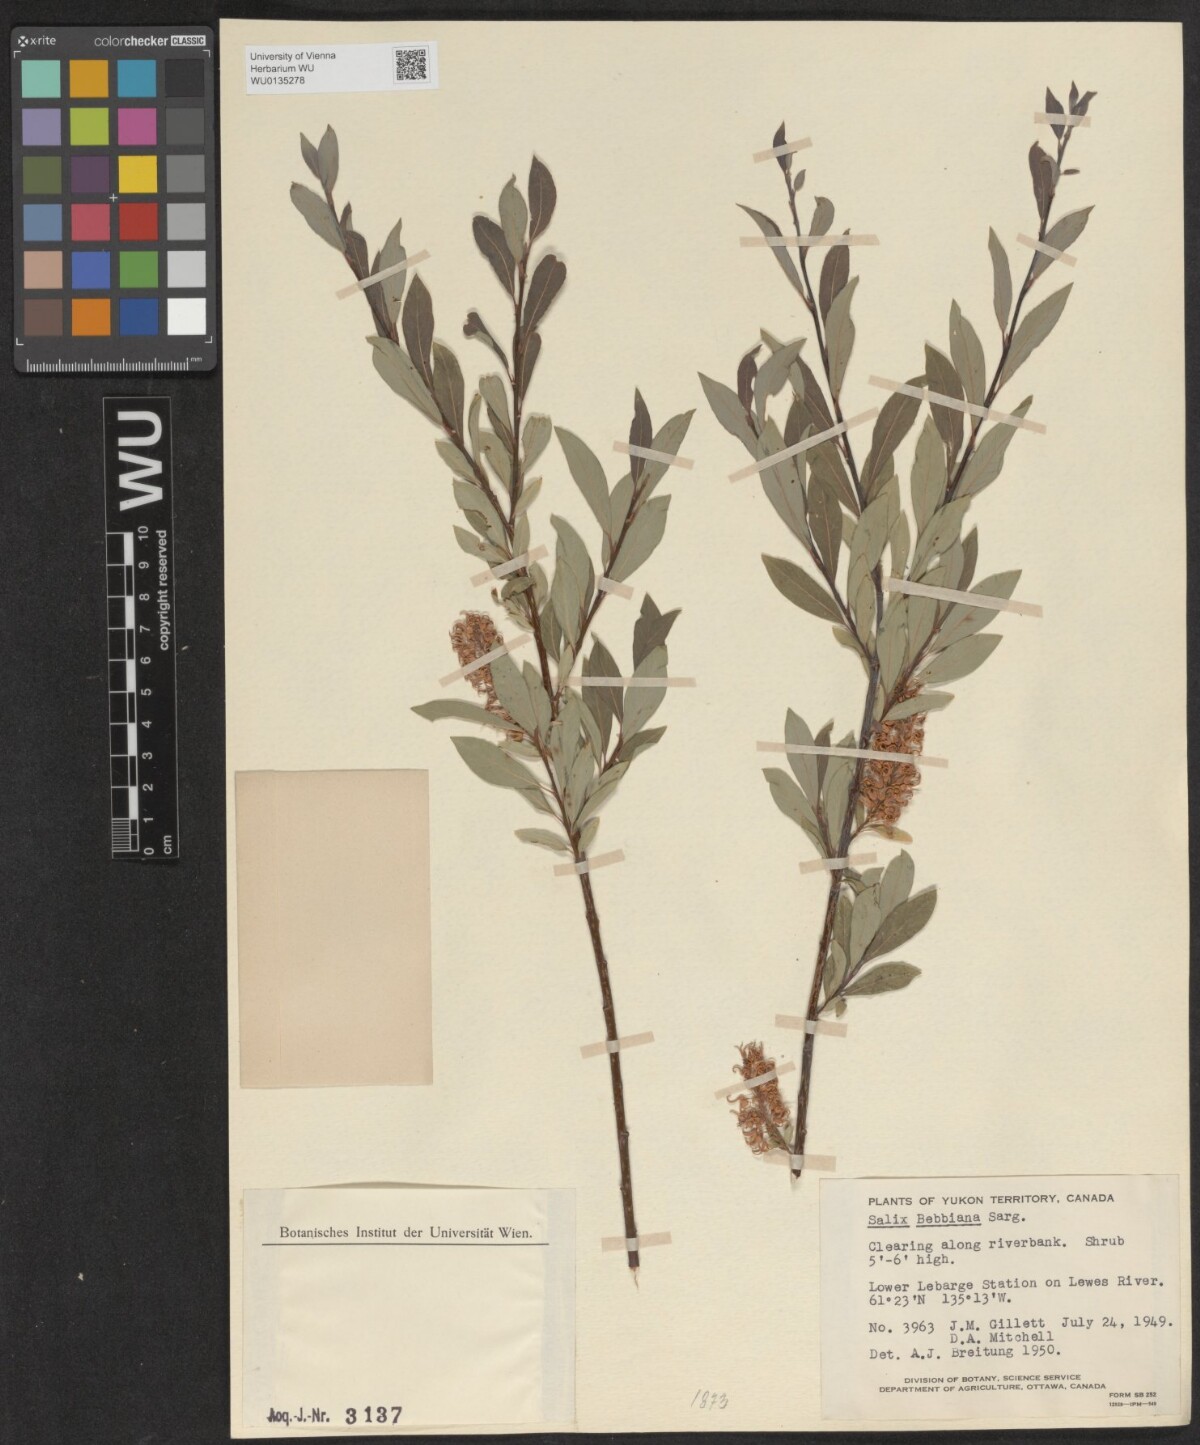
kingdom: Plantae
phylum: Tracheophyta
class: Magnoliopsida
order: Malpighiales
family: Salicaceae
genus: Salix
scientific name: Salix bebbiana
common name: Bebb's willow
